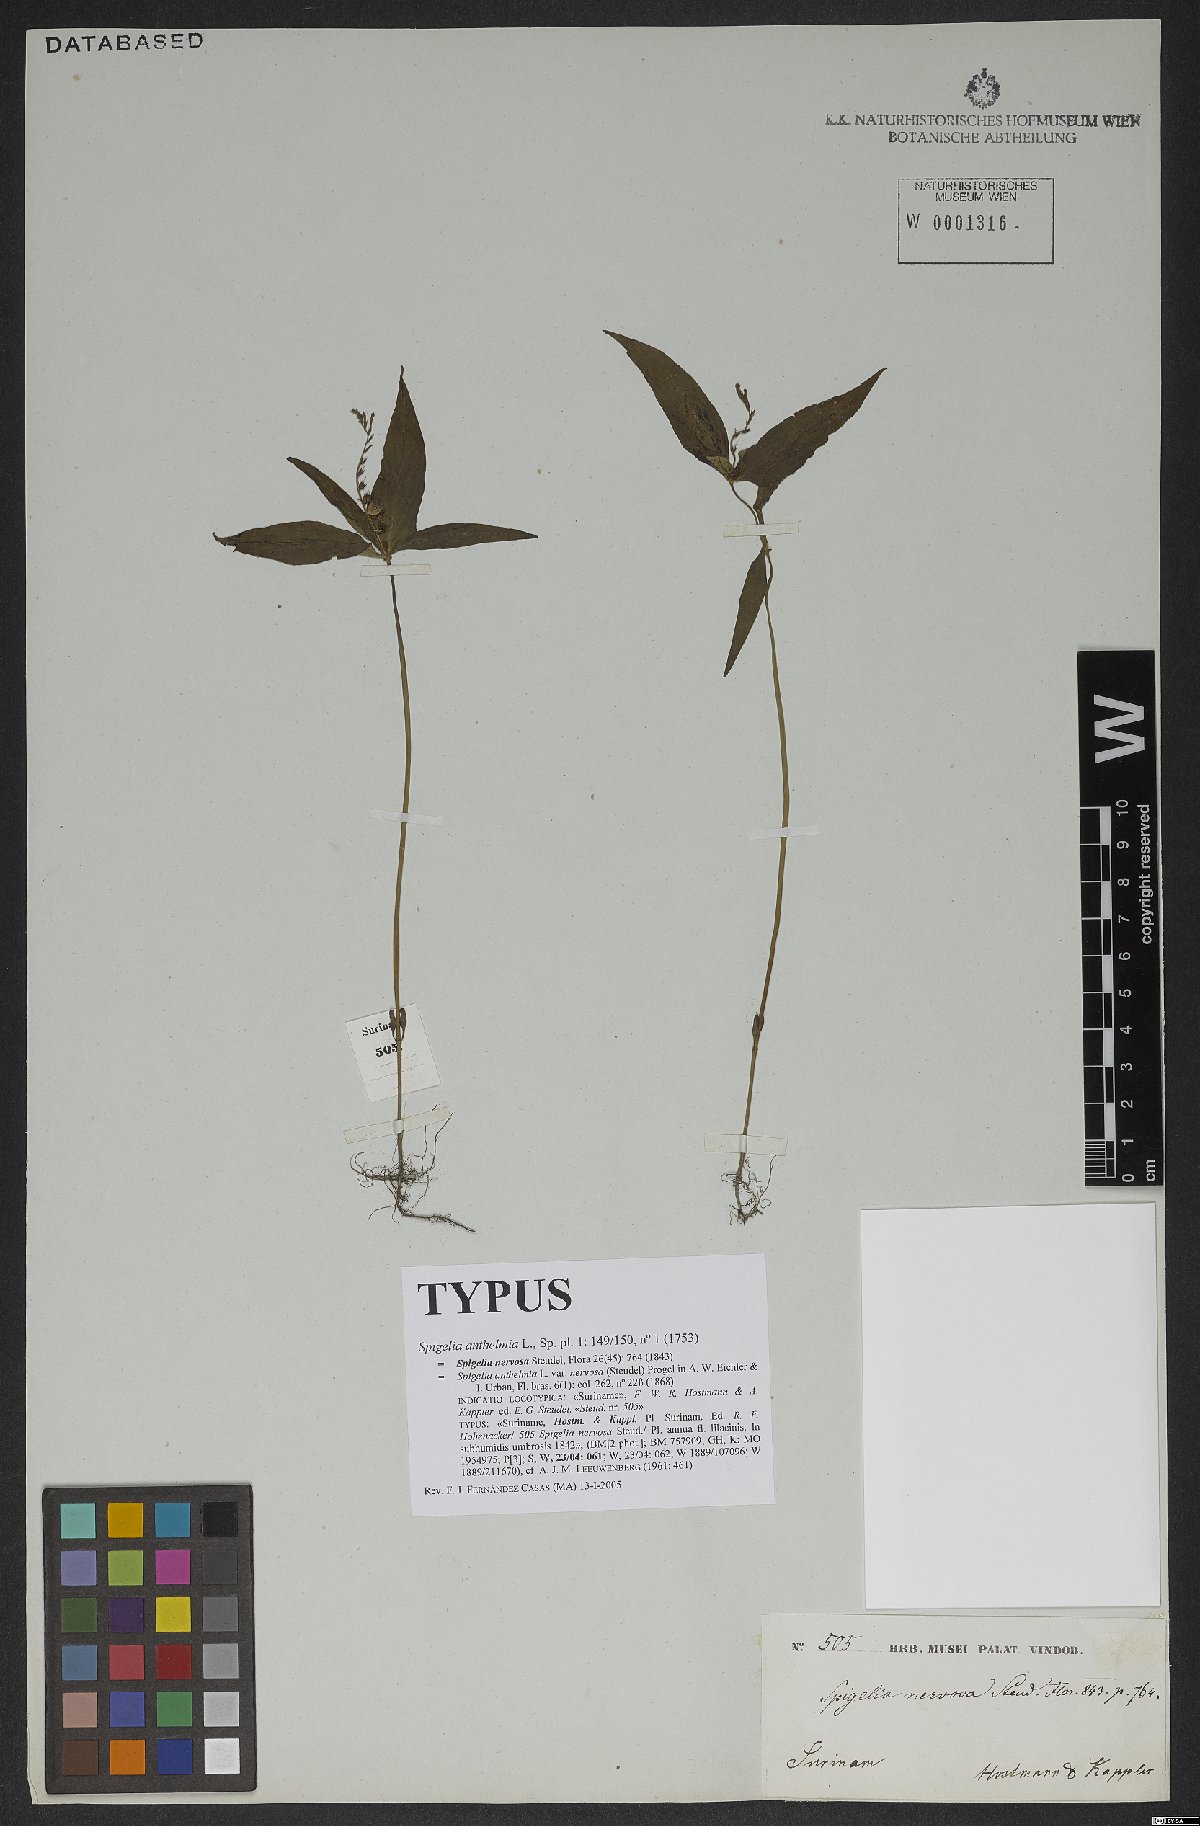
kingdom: Plantae
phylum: Tracheophyta
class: Magnoliopsida
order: Gentianales
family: Loganiaceae
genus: Spigelia
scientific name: Spigelia anthelmia
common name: West indian-pink
